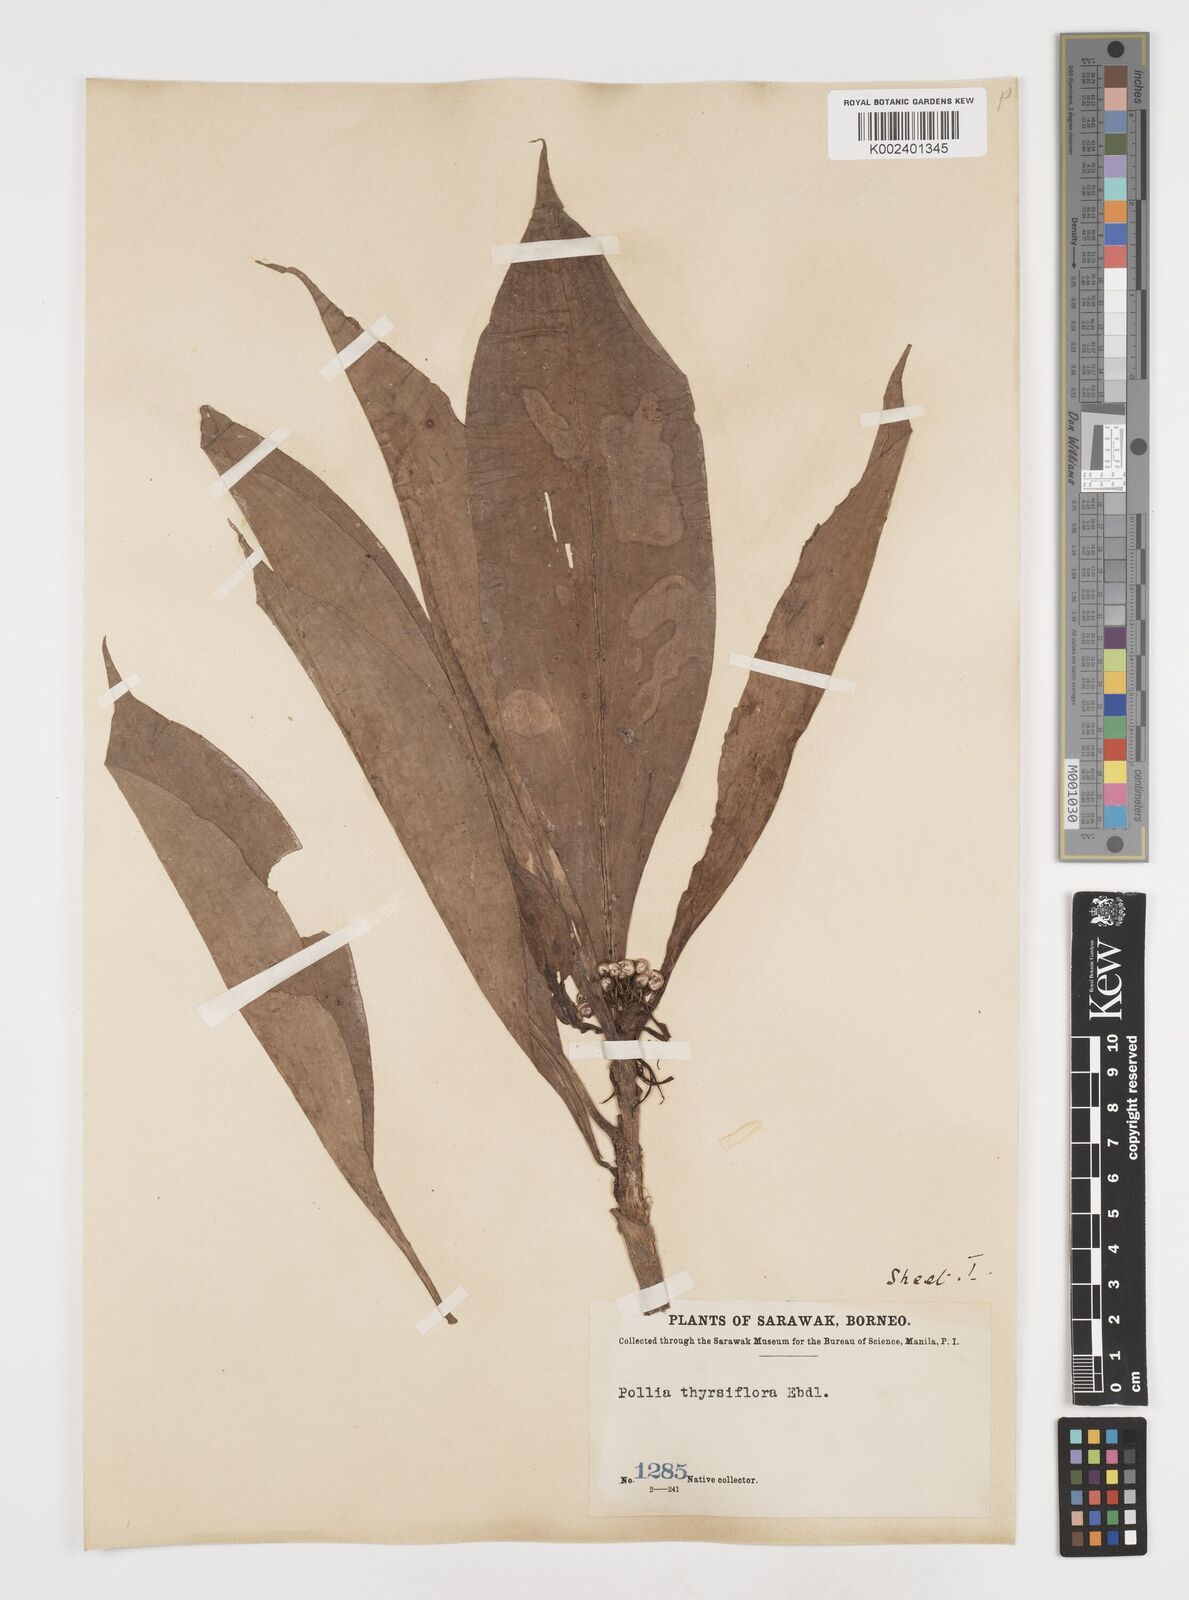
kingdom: Plantae
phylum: Tracheophyta
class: Liliopsida
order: Commelinales
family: Commelinaceae
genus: Pollia
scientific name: Pollia thyrsiflora
